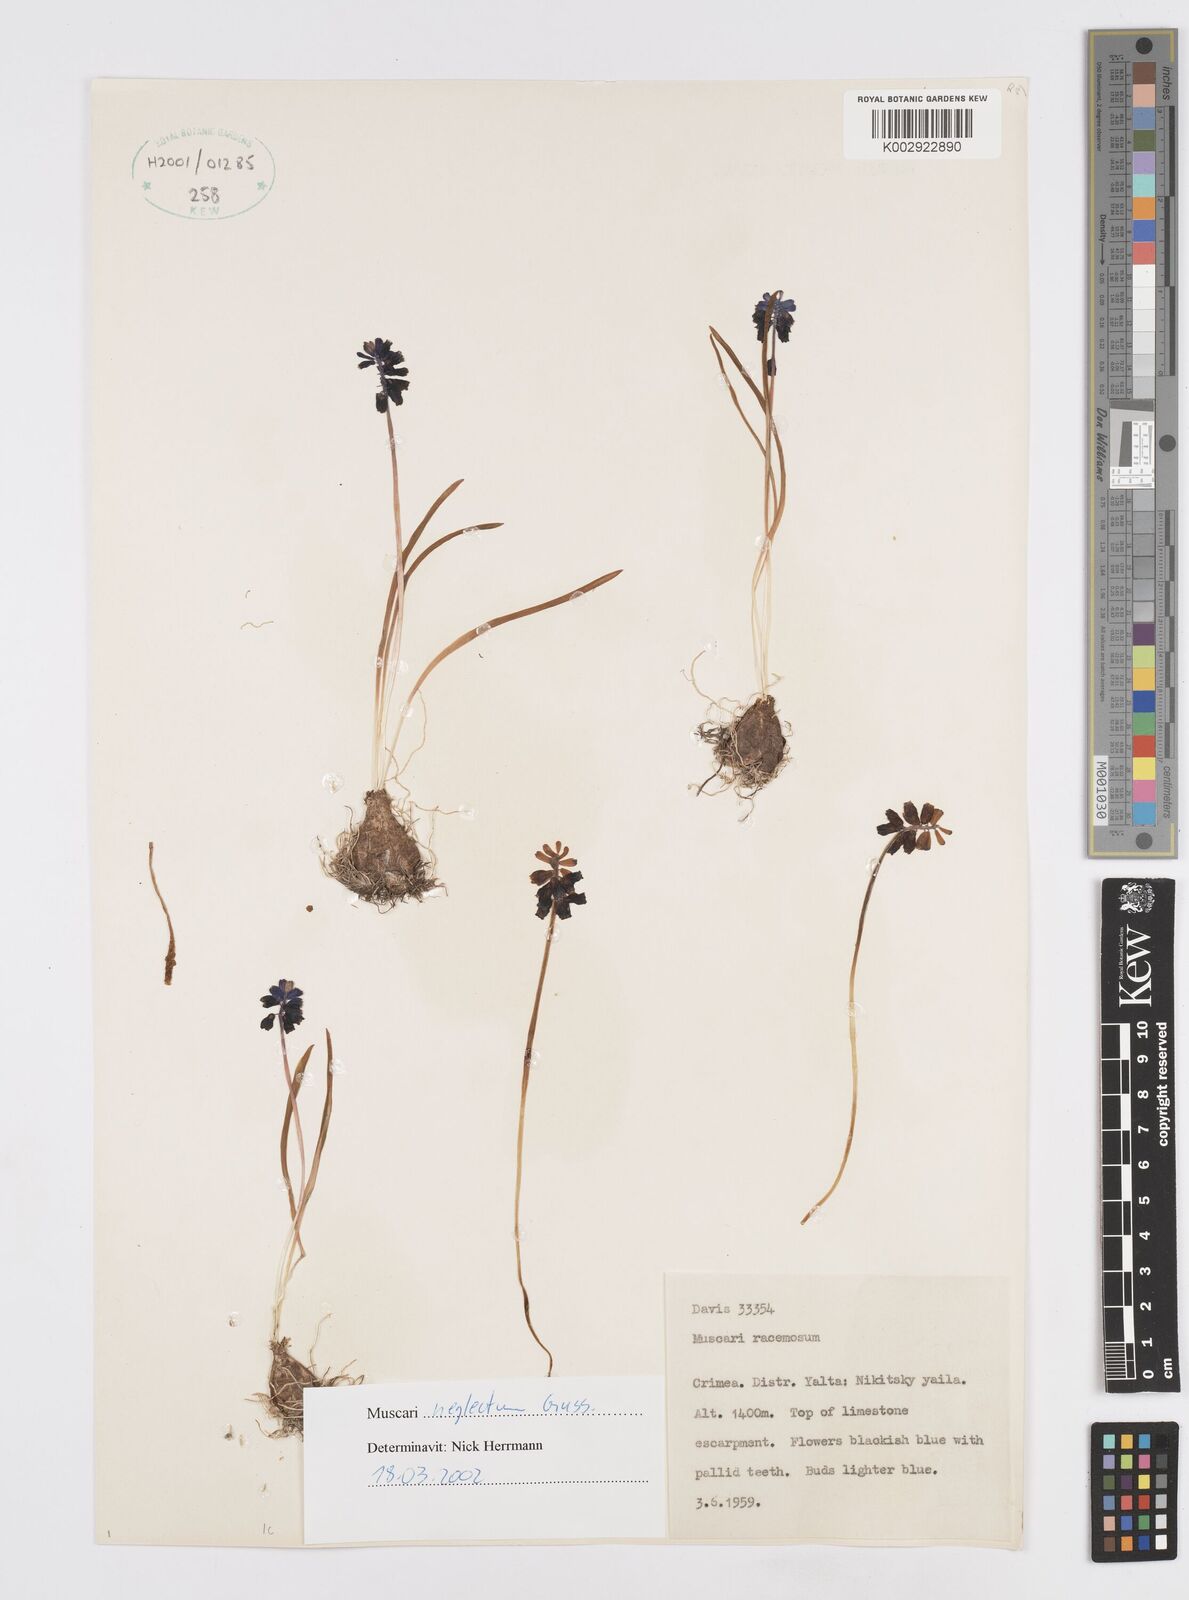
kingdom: Plantae
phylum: Tracheophyta
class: Liliopsida
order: Asparagales
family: Asparagaceae
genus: Muscari
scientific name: Muscari
